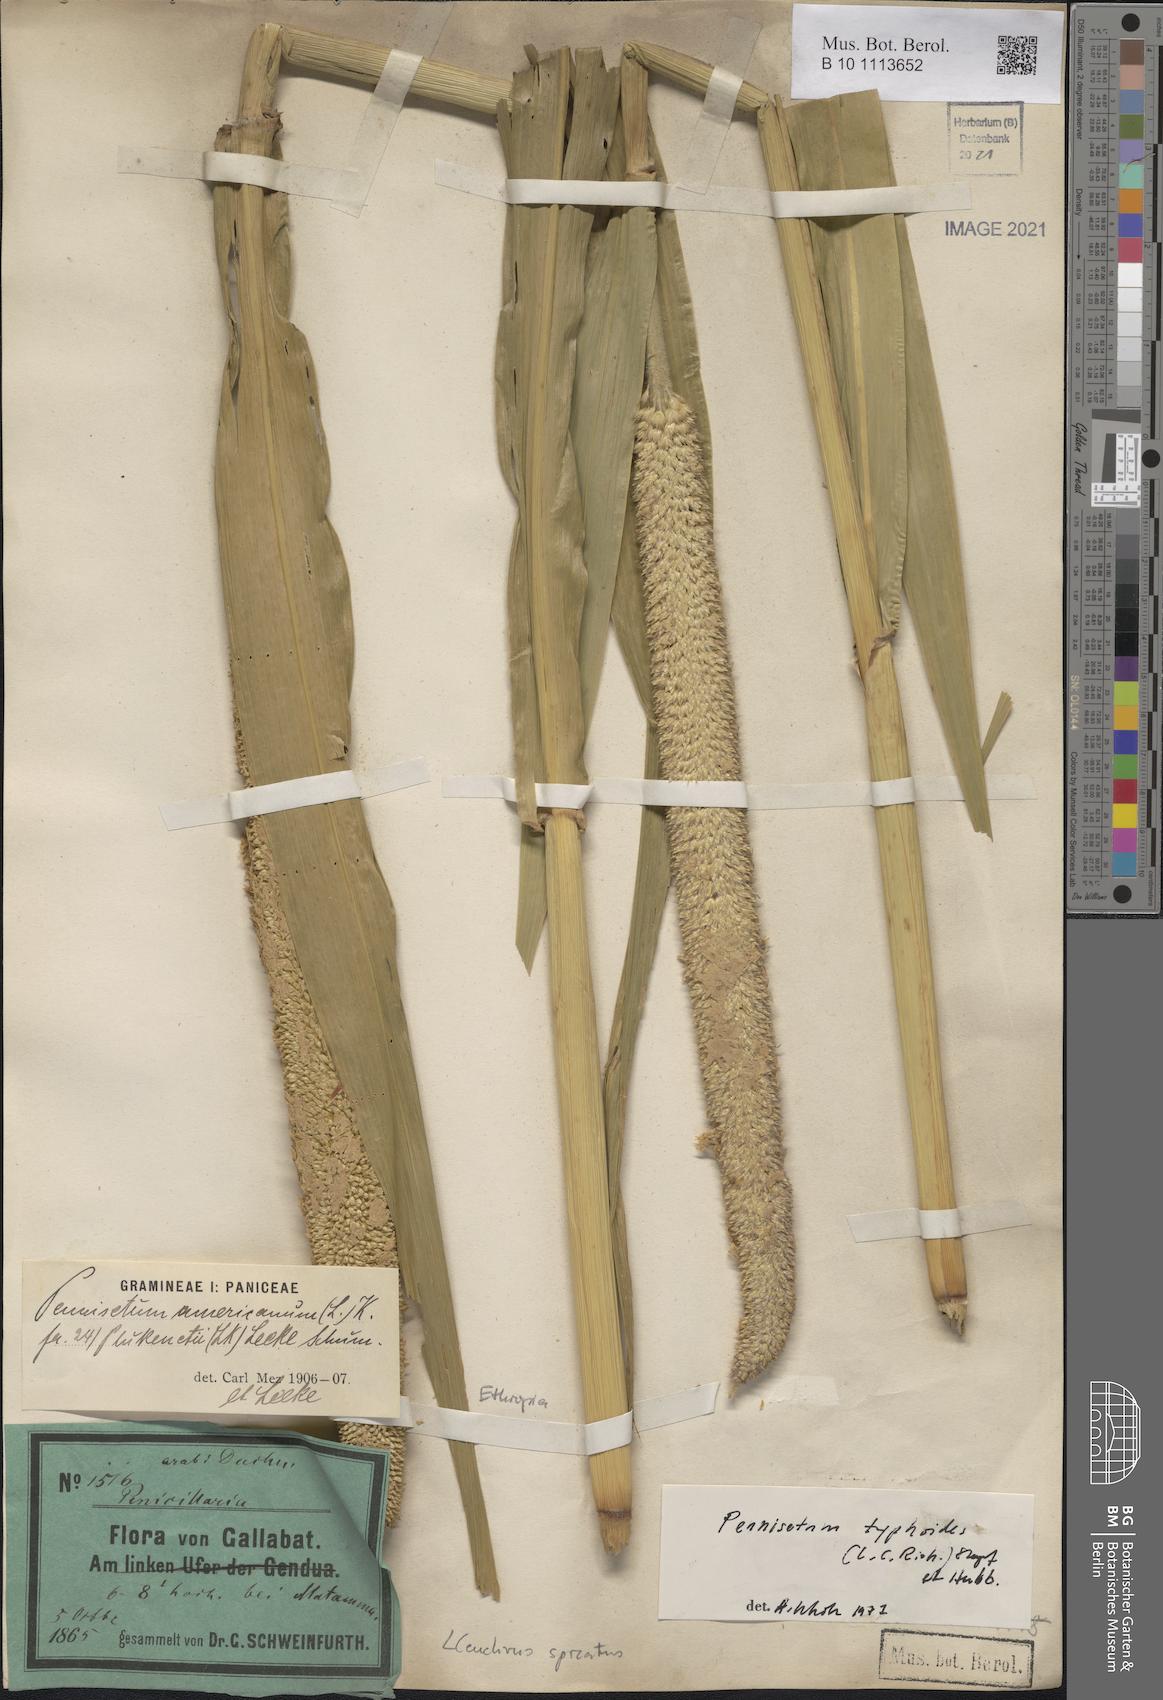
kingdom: Plantae
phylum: Tracheophyta
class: Liliopsida
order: Poales
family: Poaceae
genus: Cenchrus
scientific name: Cenchrus americanus
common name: Pearl millet
